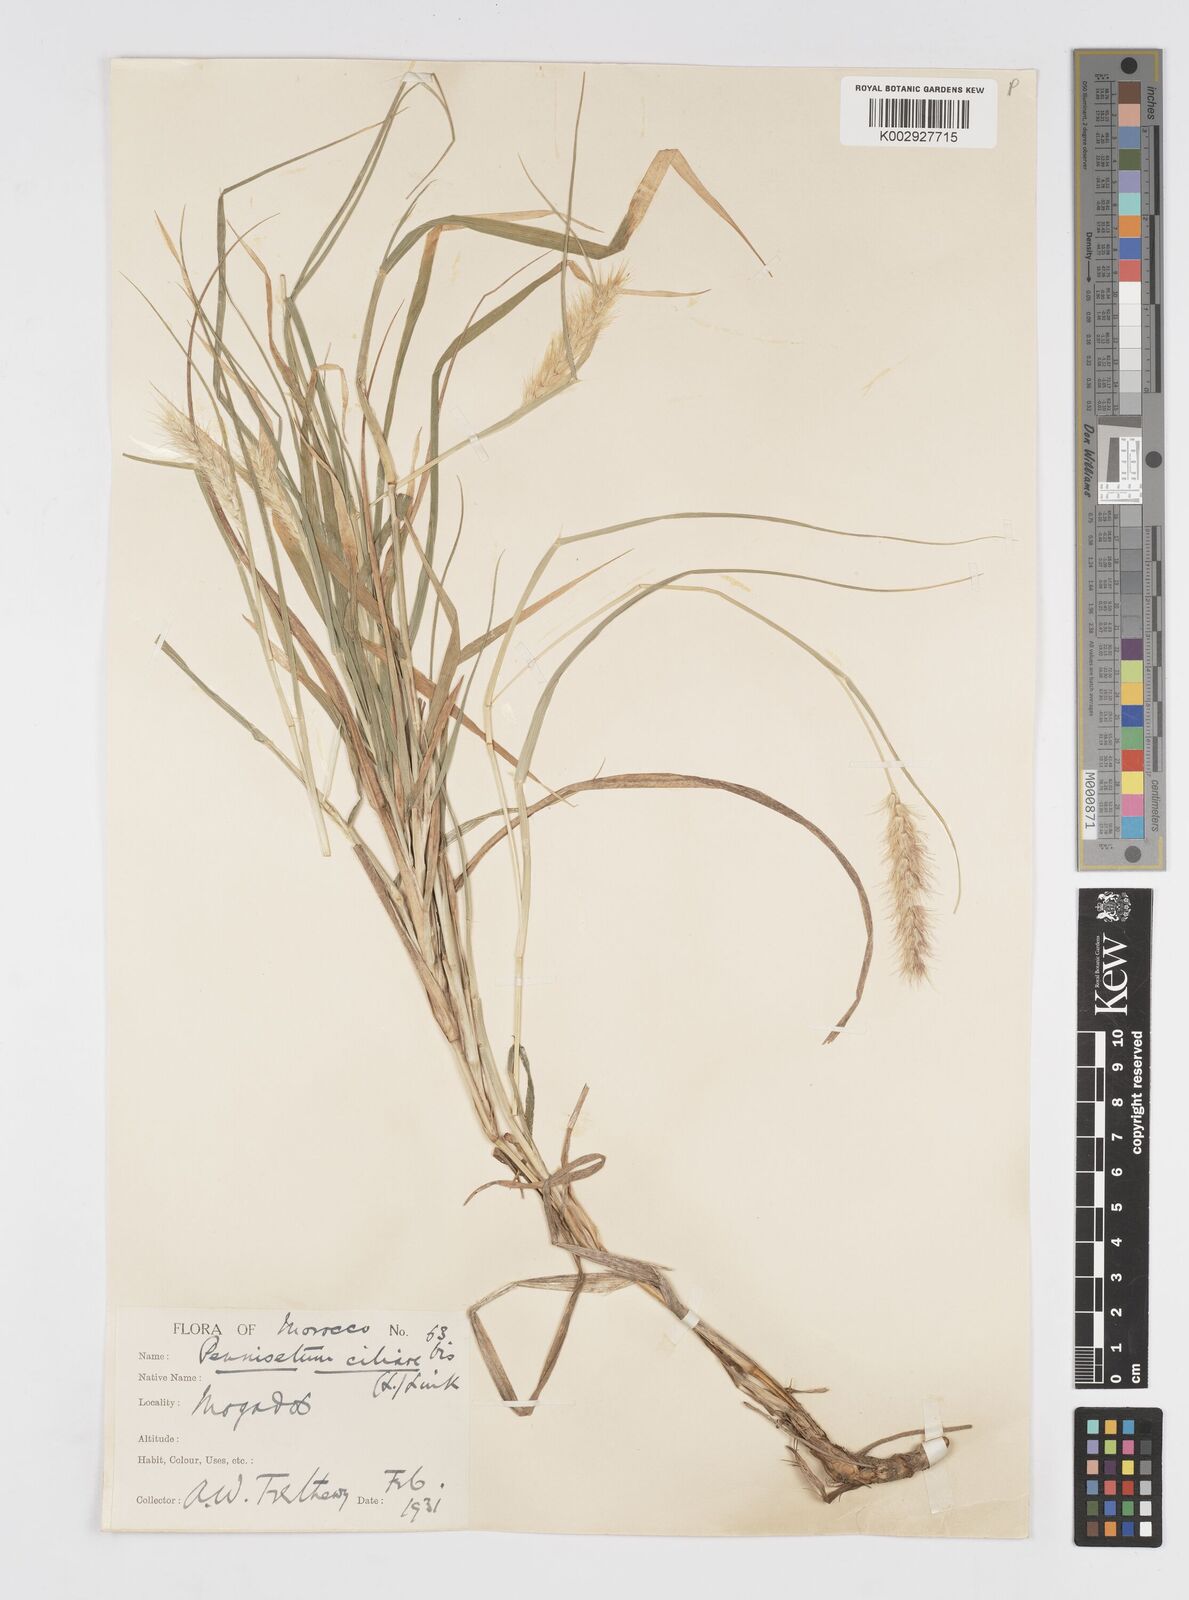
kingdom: Plantae
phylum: Tracheophyta
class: Liliopsida
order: Poales
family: Poaceae
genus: Cenchrus
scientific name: Cenchrus ciliaris
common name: Buffelgrass
